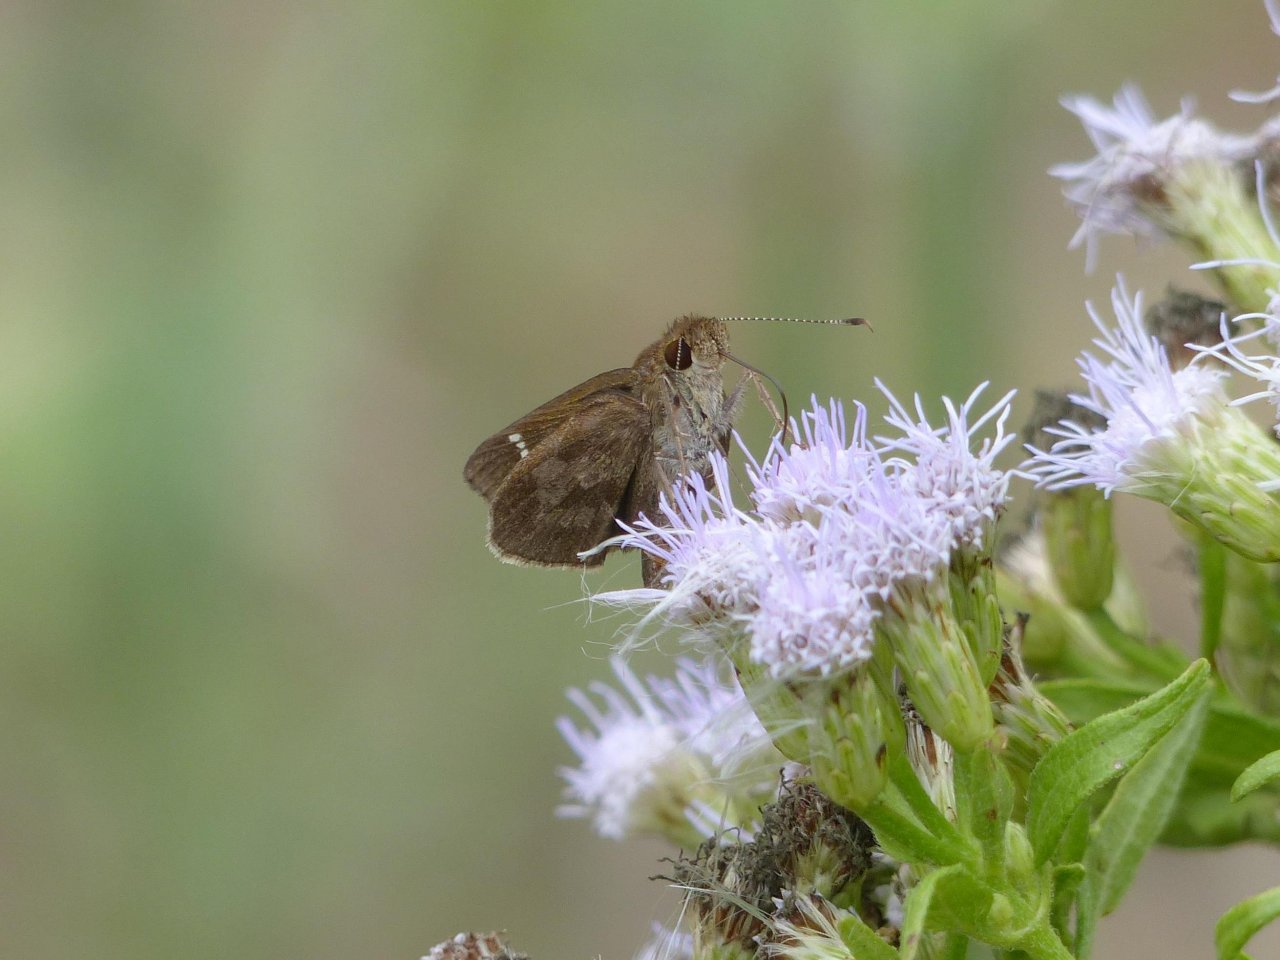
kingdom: Animalia
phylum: Arthropoda
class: Insecta
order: Lepidoptera
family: Hesperiidae
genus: Cymaenes
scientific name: Cymaenes odilia
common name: Fawn-spotted Skipper
